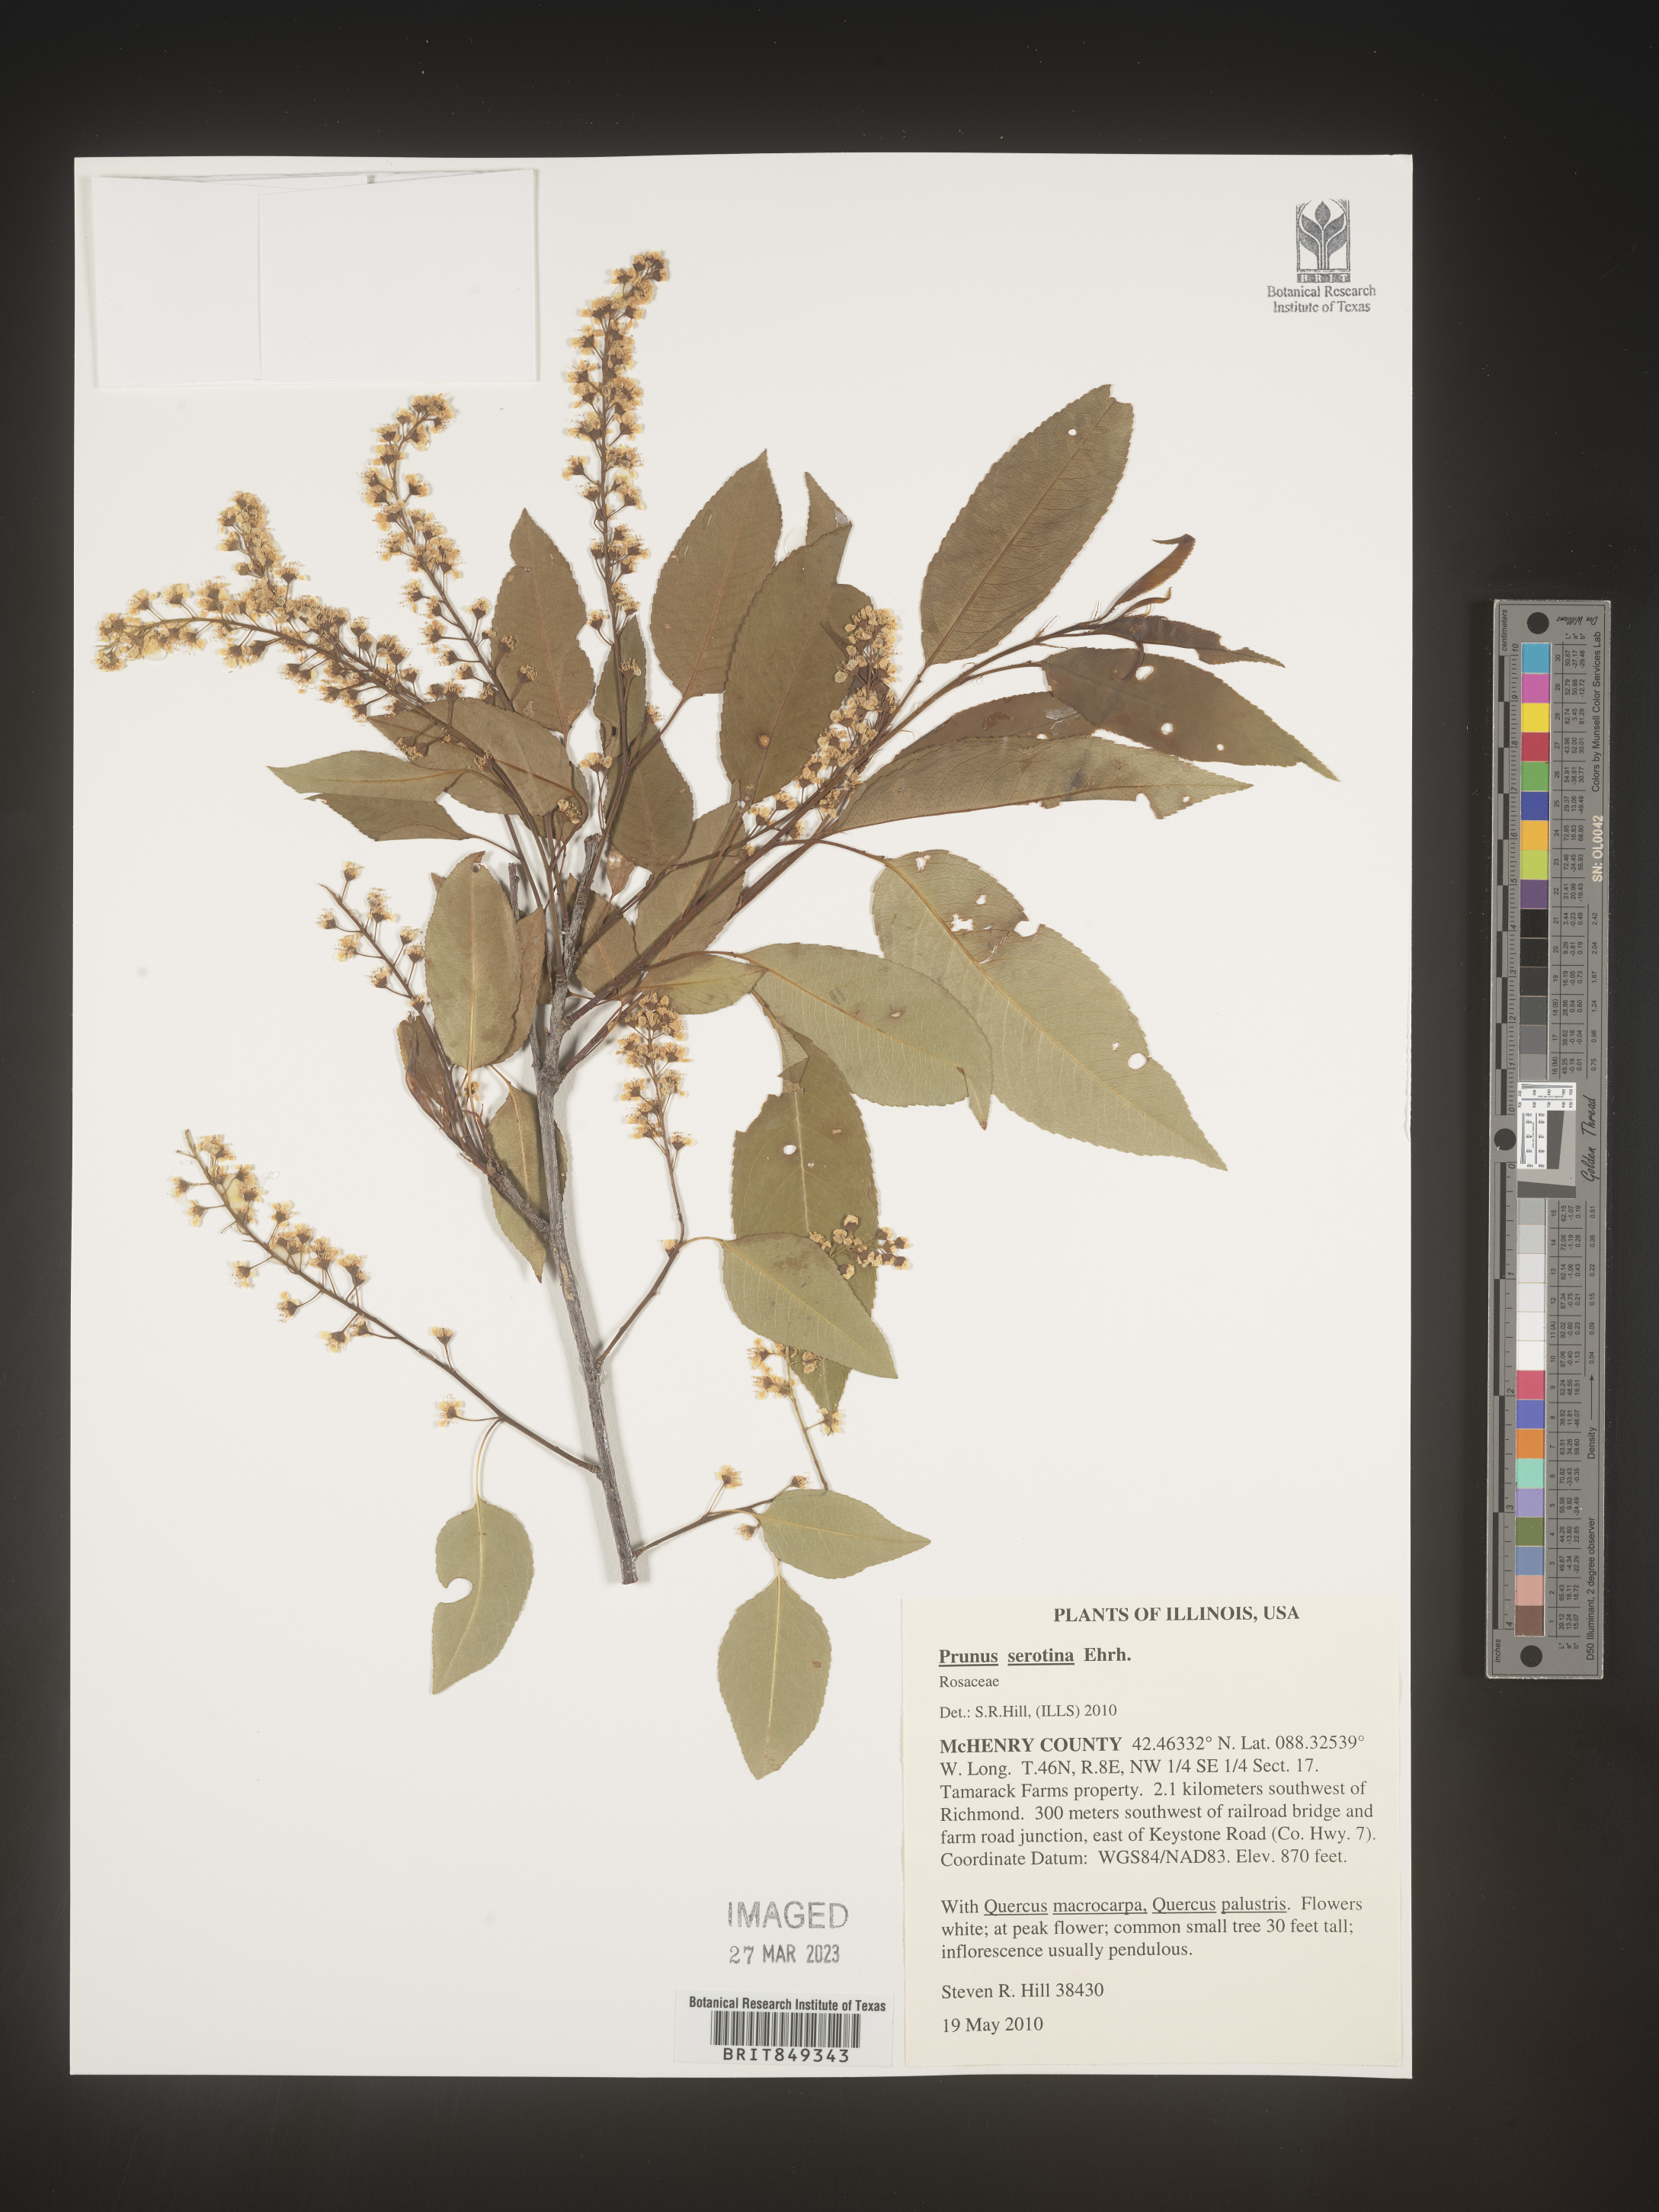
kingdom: Plantae
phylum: Tracheophyta
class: Magnoliopsida
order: Rosales
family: Rosaceae
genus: Prunus
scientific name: Prunus serotina
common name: Black cherry
